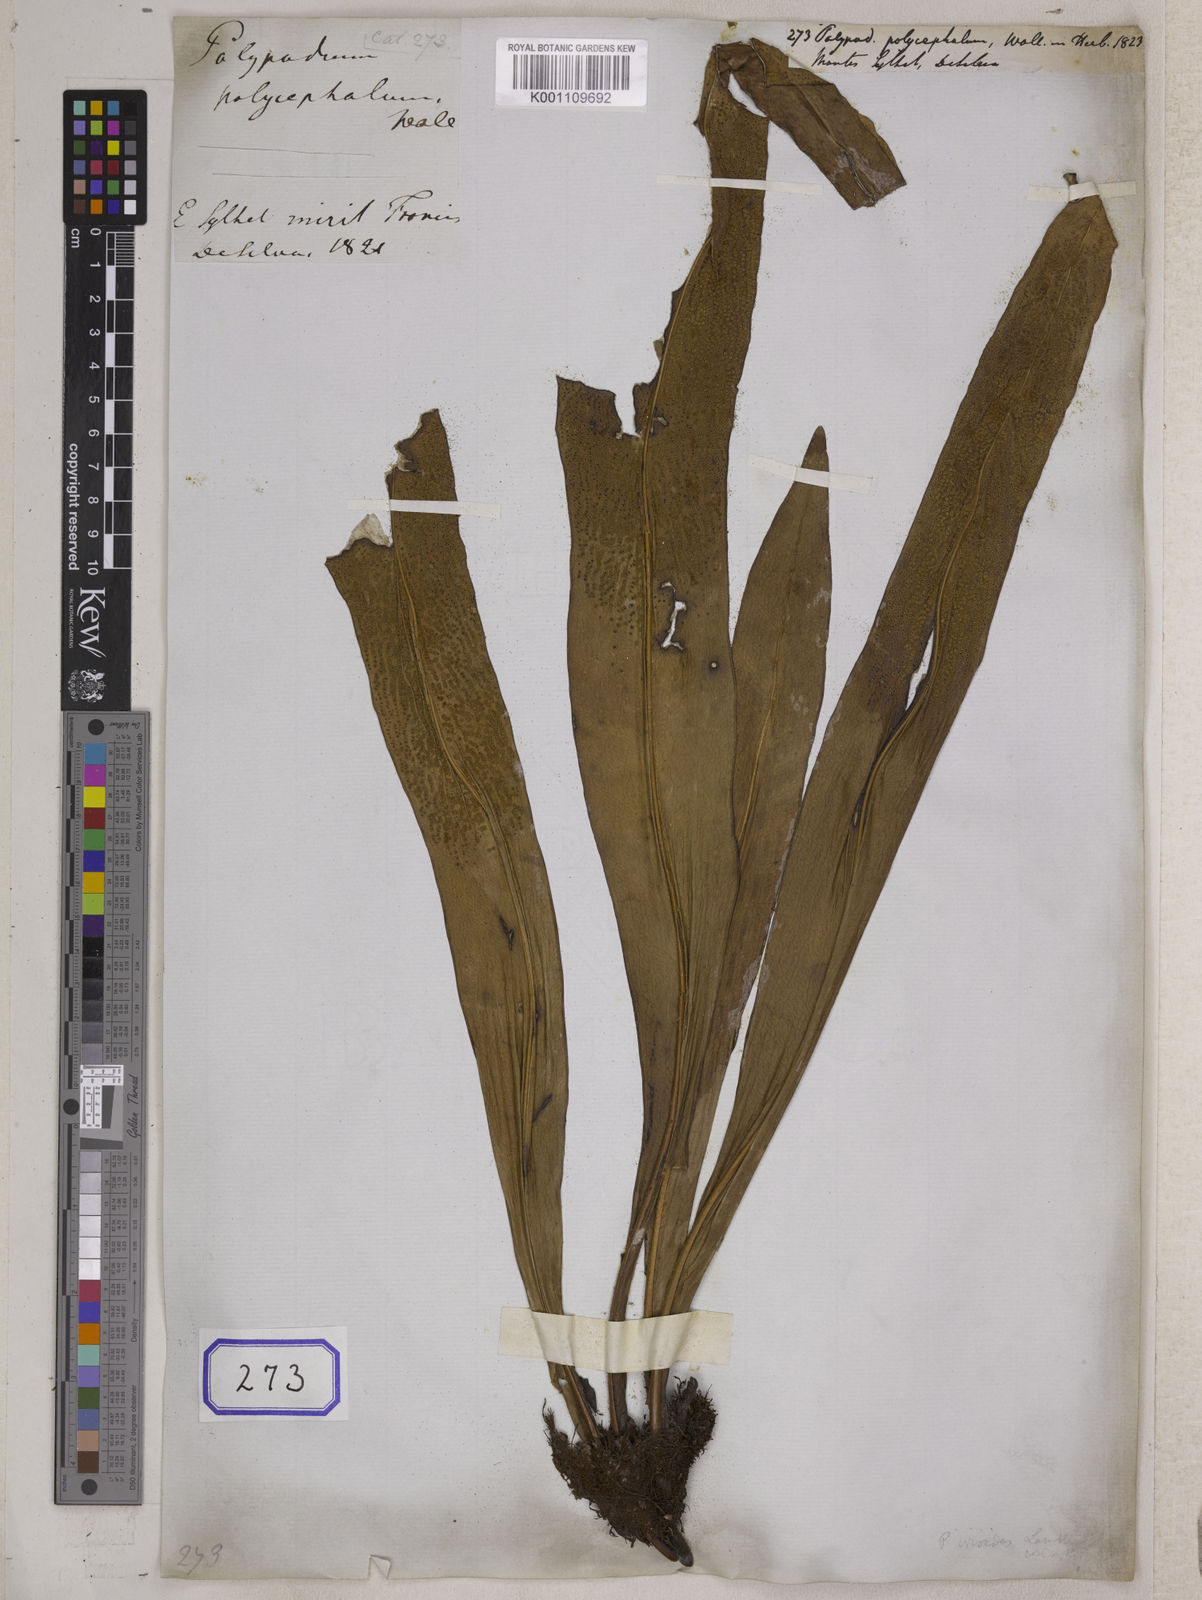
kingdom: Plantae
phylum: Tracheophyta
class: Polypodiopsida
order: Polypodiales
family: Polypodiaceae
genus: Microsorum
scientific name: Microsorum punctatum
